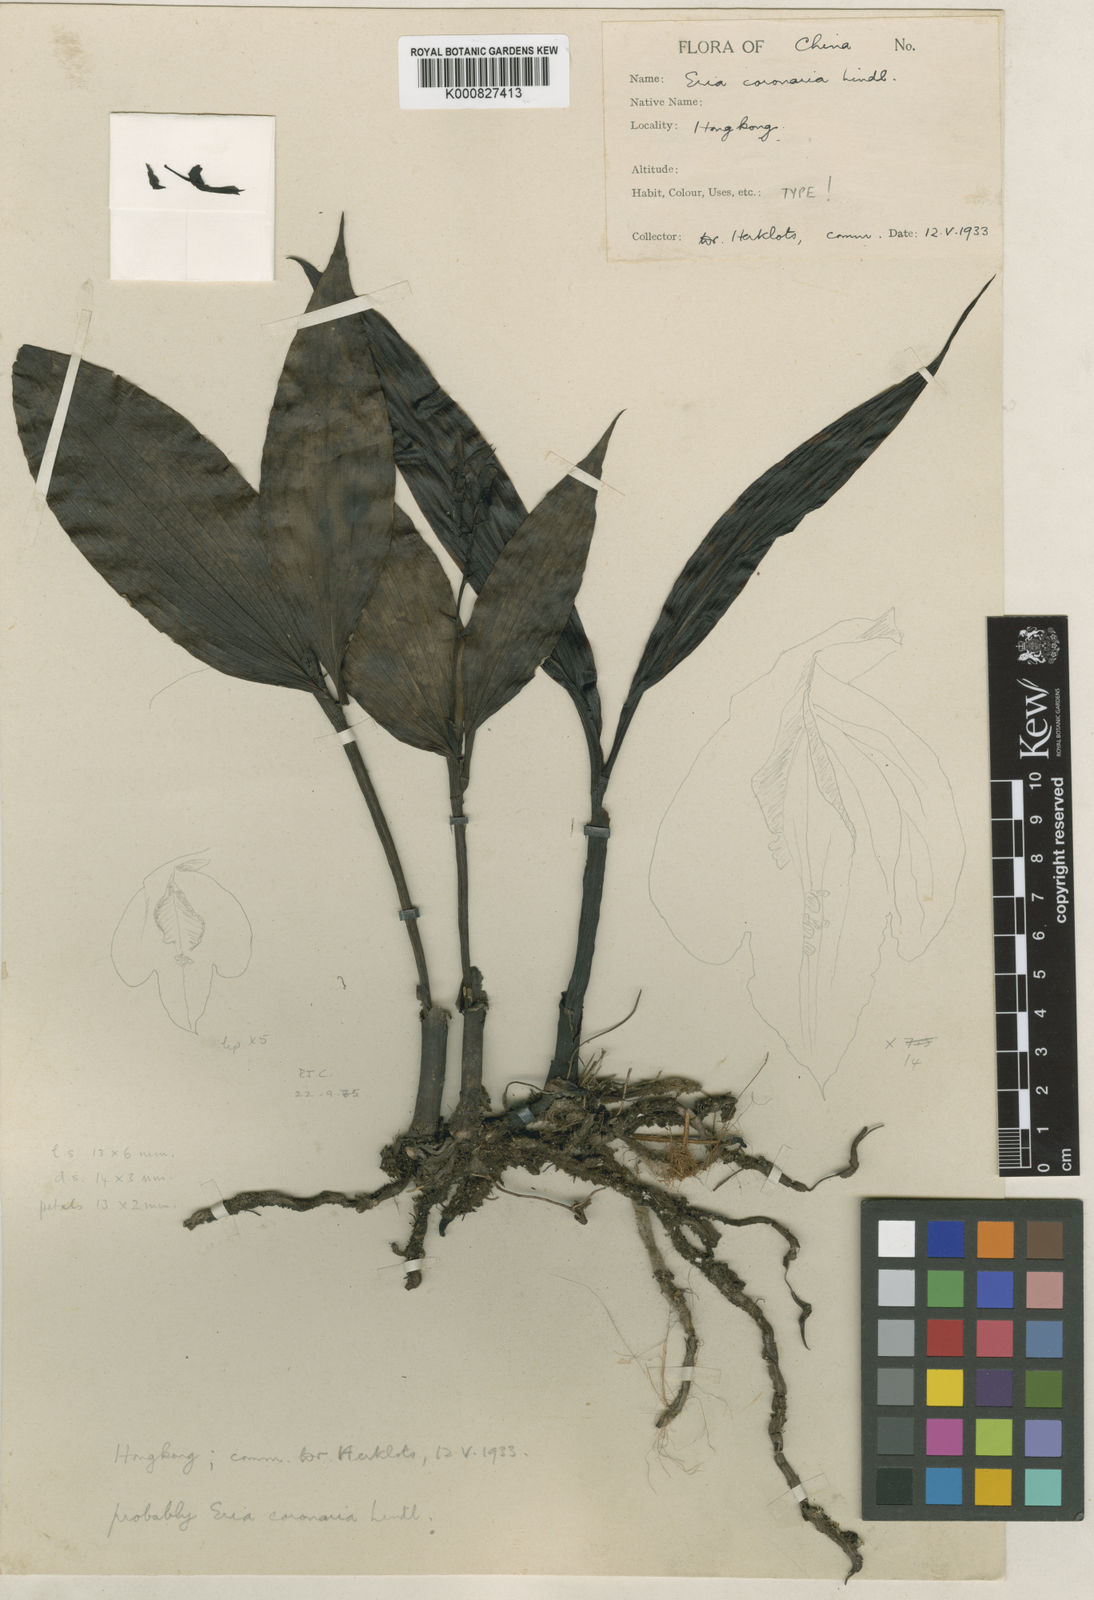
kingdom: Plantae
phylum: Tracheophyta
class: Liliopsida
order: Asparagales
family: Orchidaceae
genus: Eria
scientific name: Eria gagnepainii
